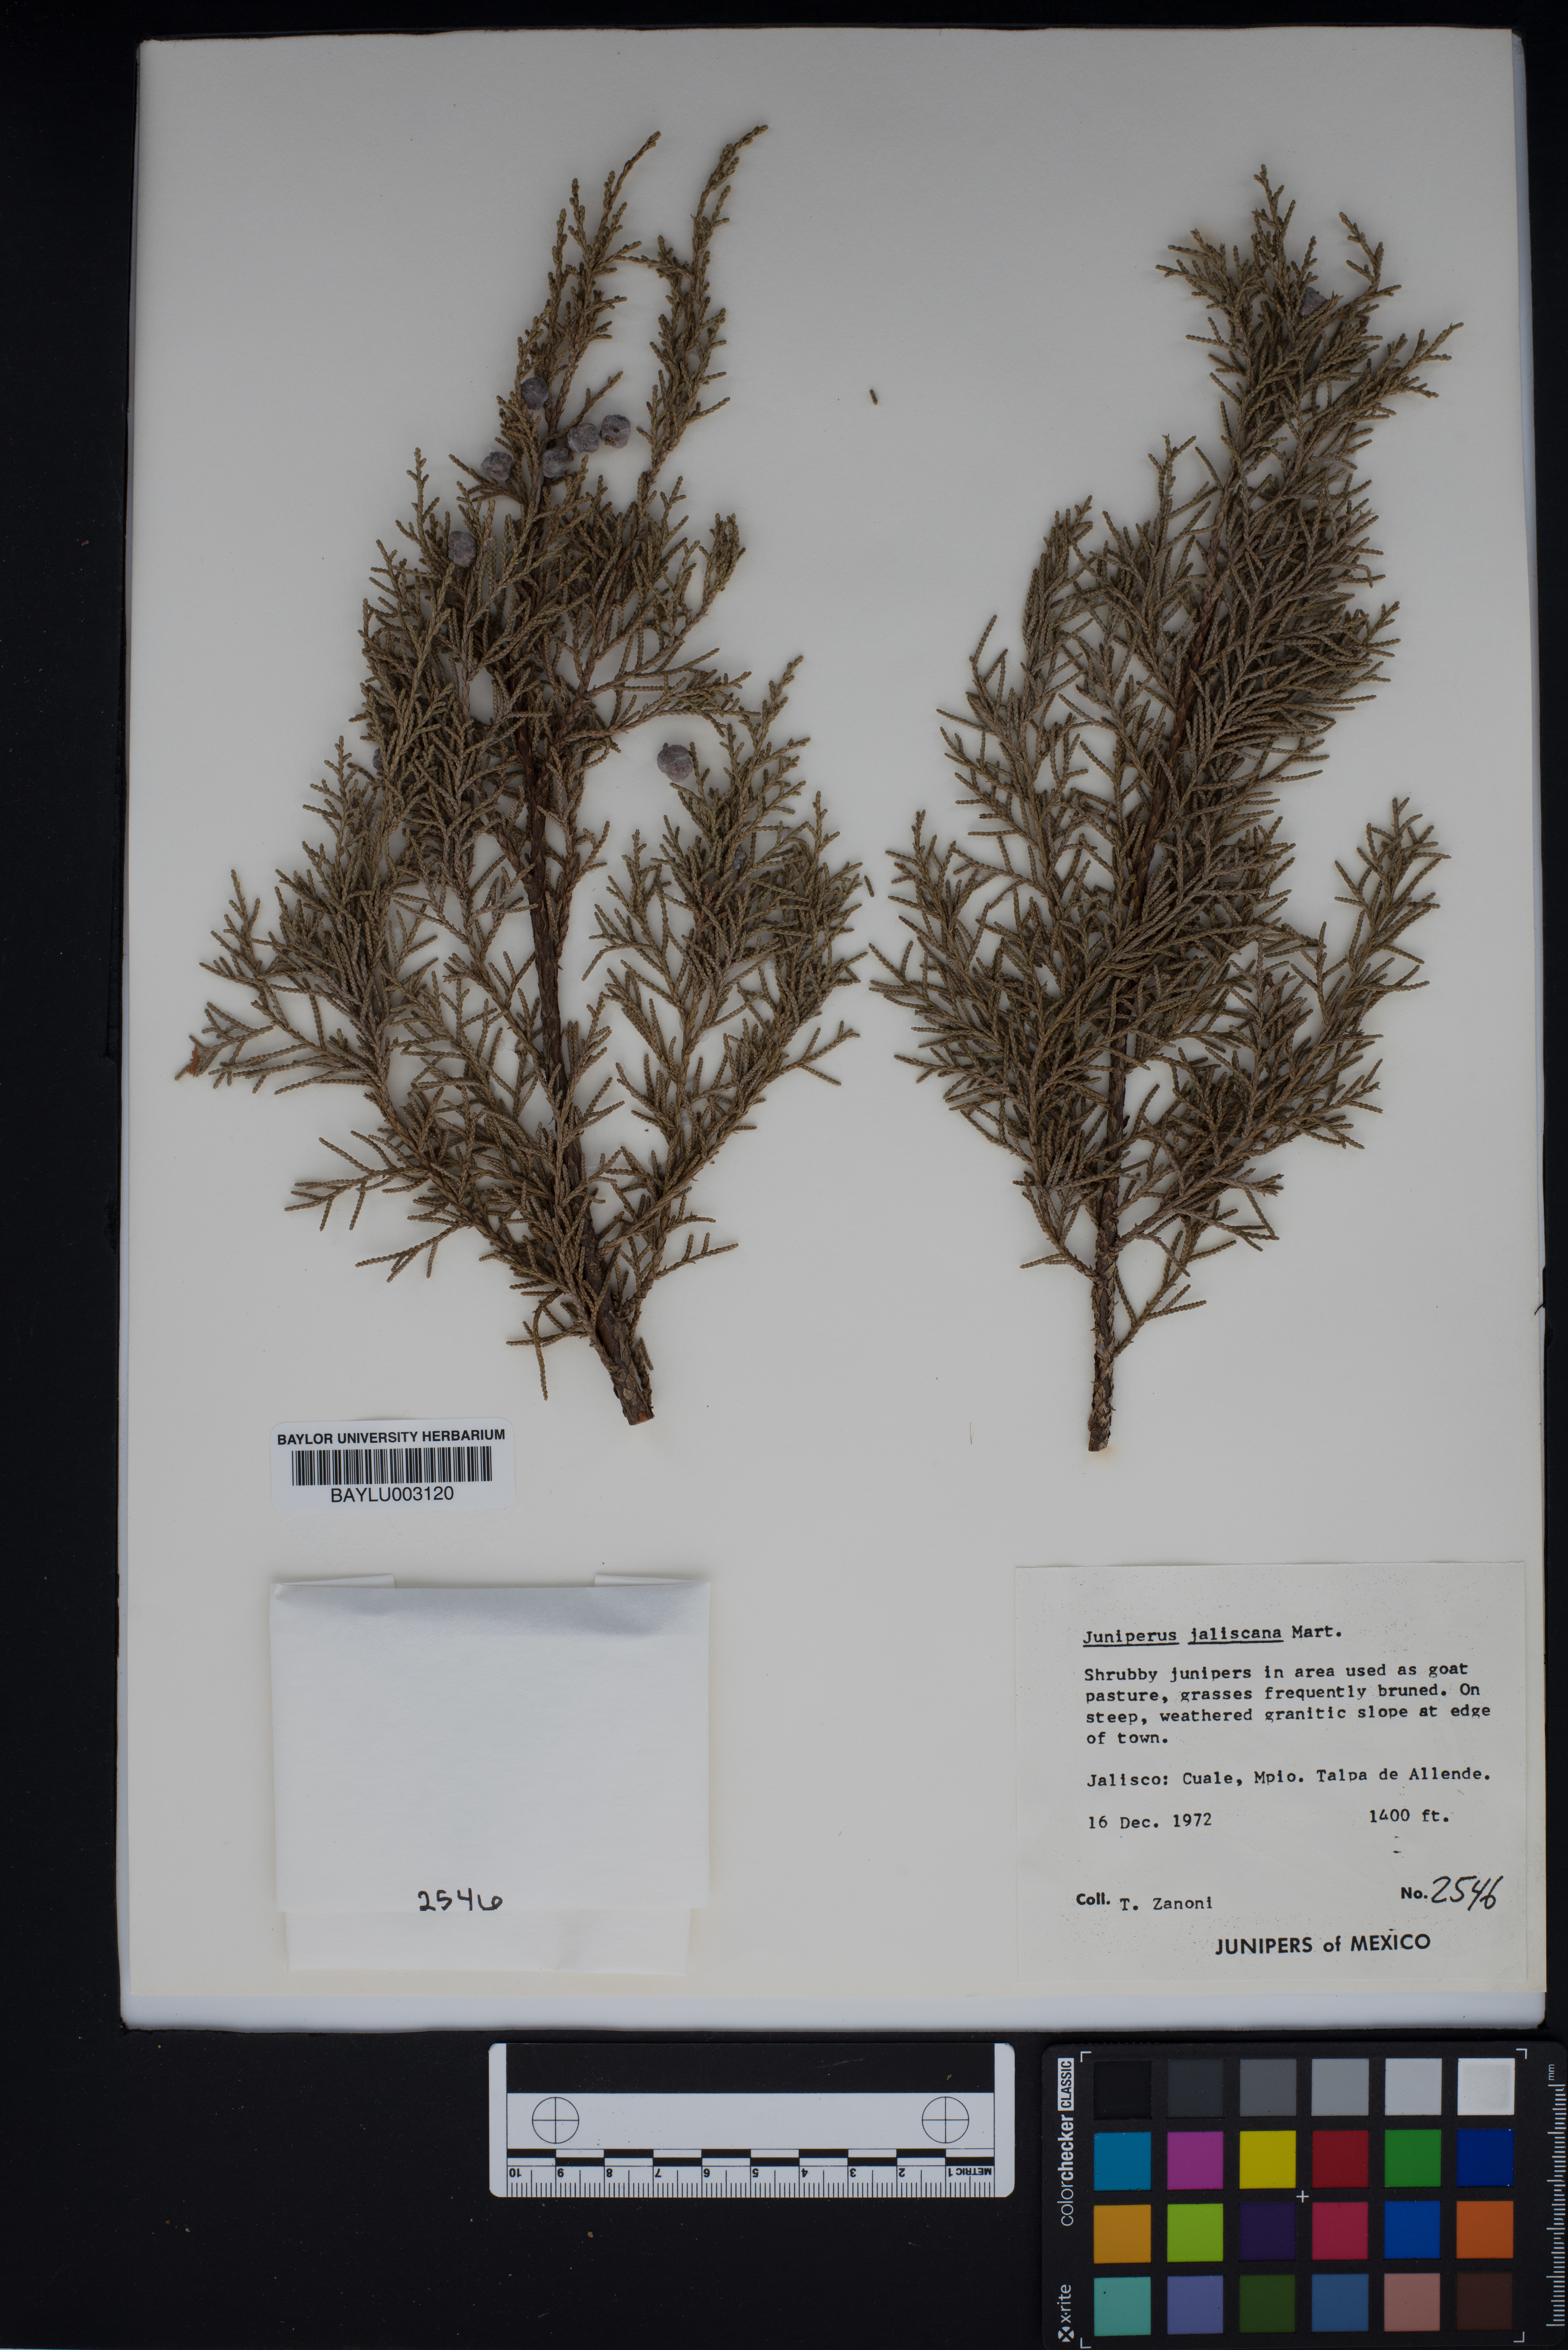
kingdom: Plantae
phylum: Tracheophyta
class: Pinopsida
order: Pinales
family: Cupressaceae
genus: Juniperus
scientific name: Juniperus jaliscana
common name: Jalisco juniper
